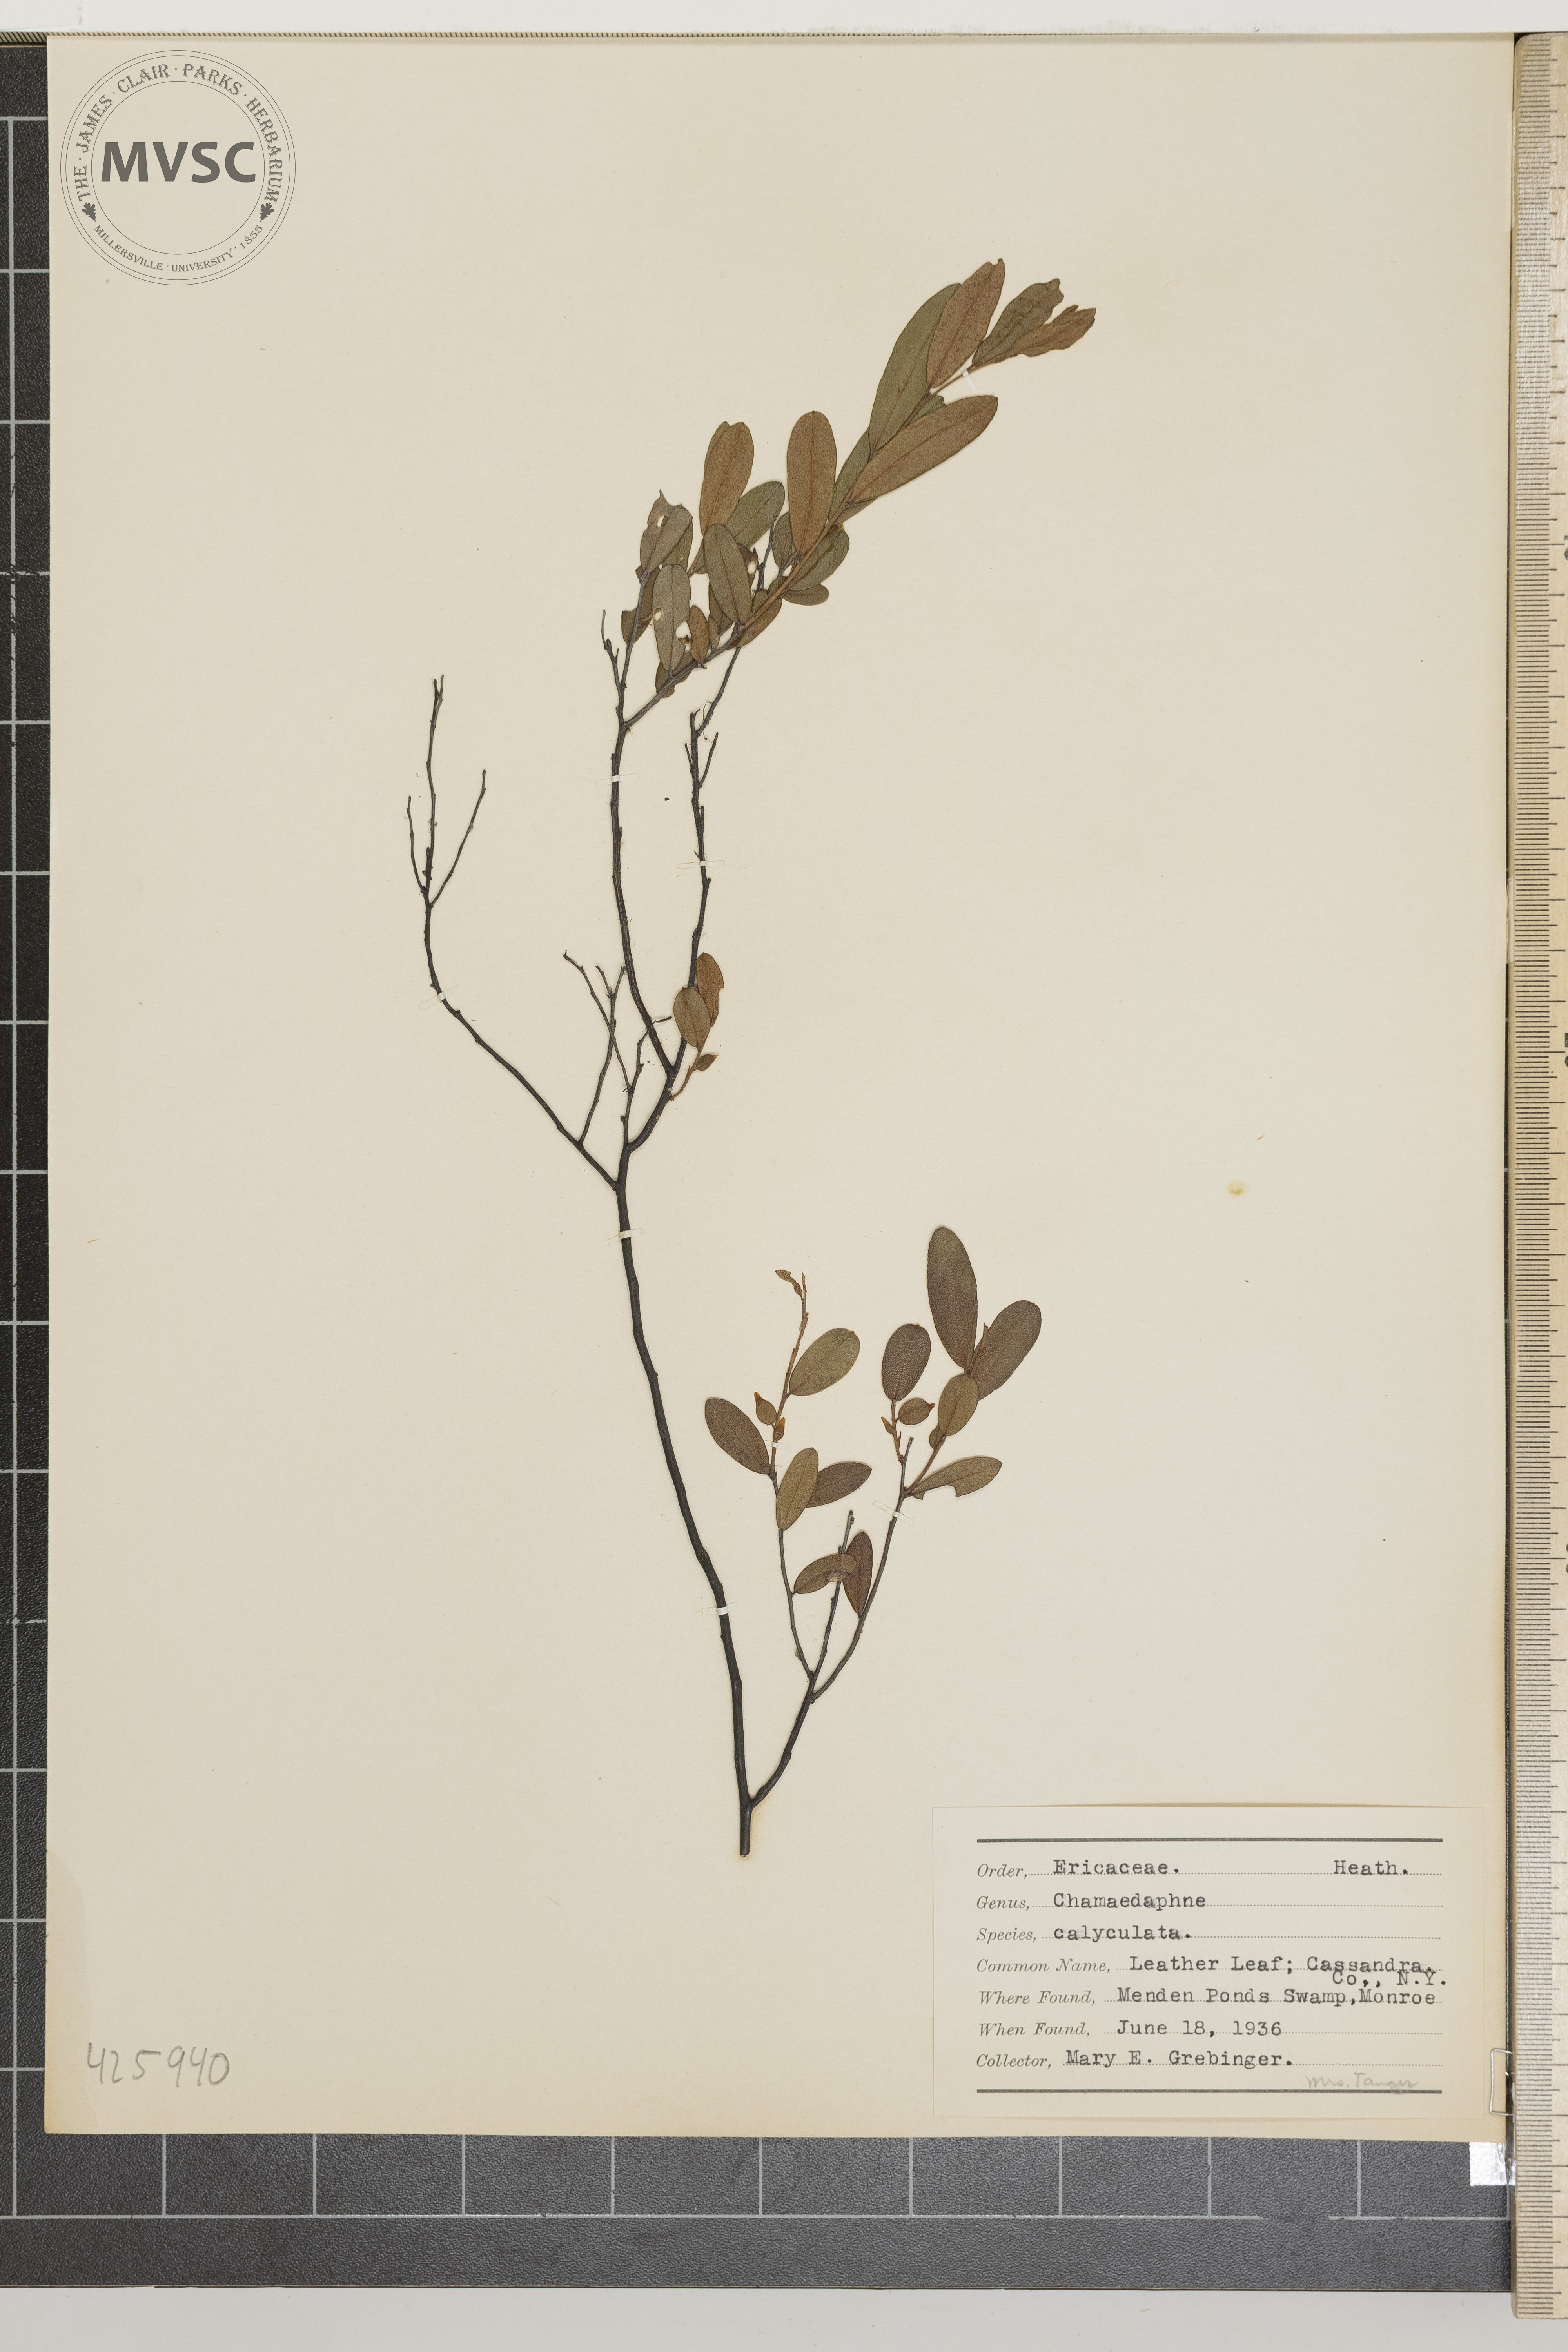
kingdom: Plantae
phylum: Tracheophyta
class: Magnoliopsida
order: Ericales
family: Ericaceae
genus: Chamaedaphne
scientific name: Chamaedaphne calyculata
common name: Leather Leaf
